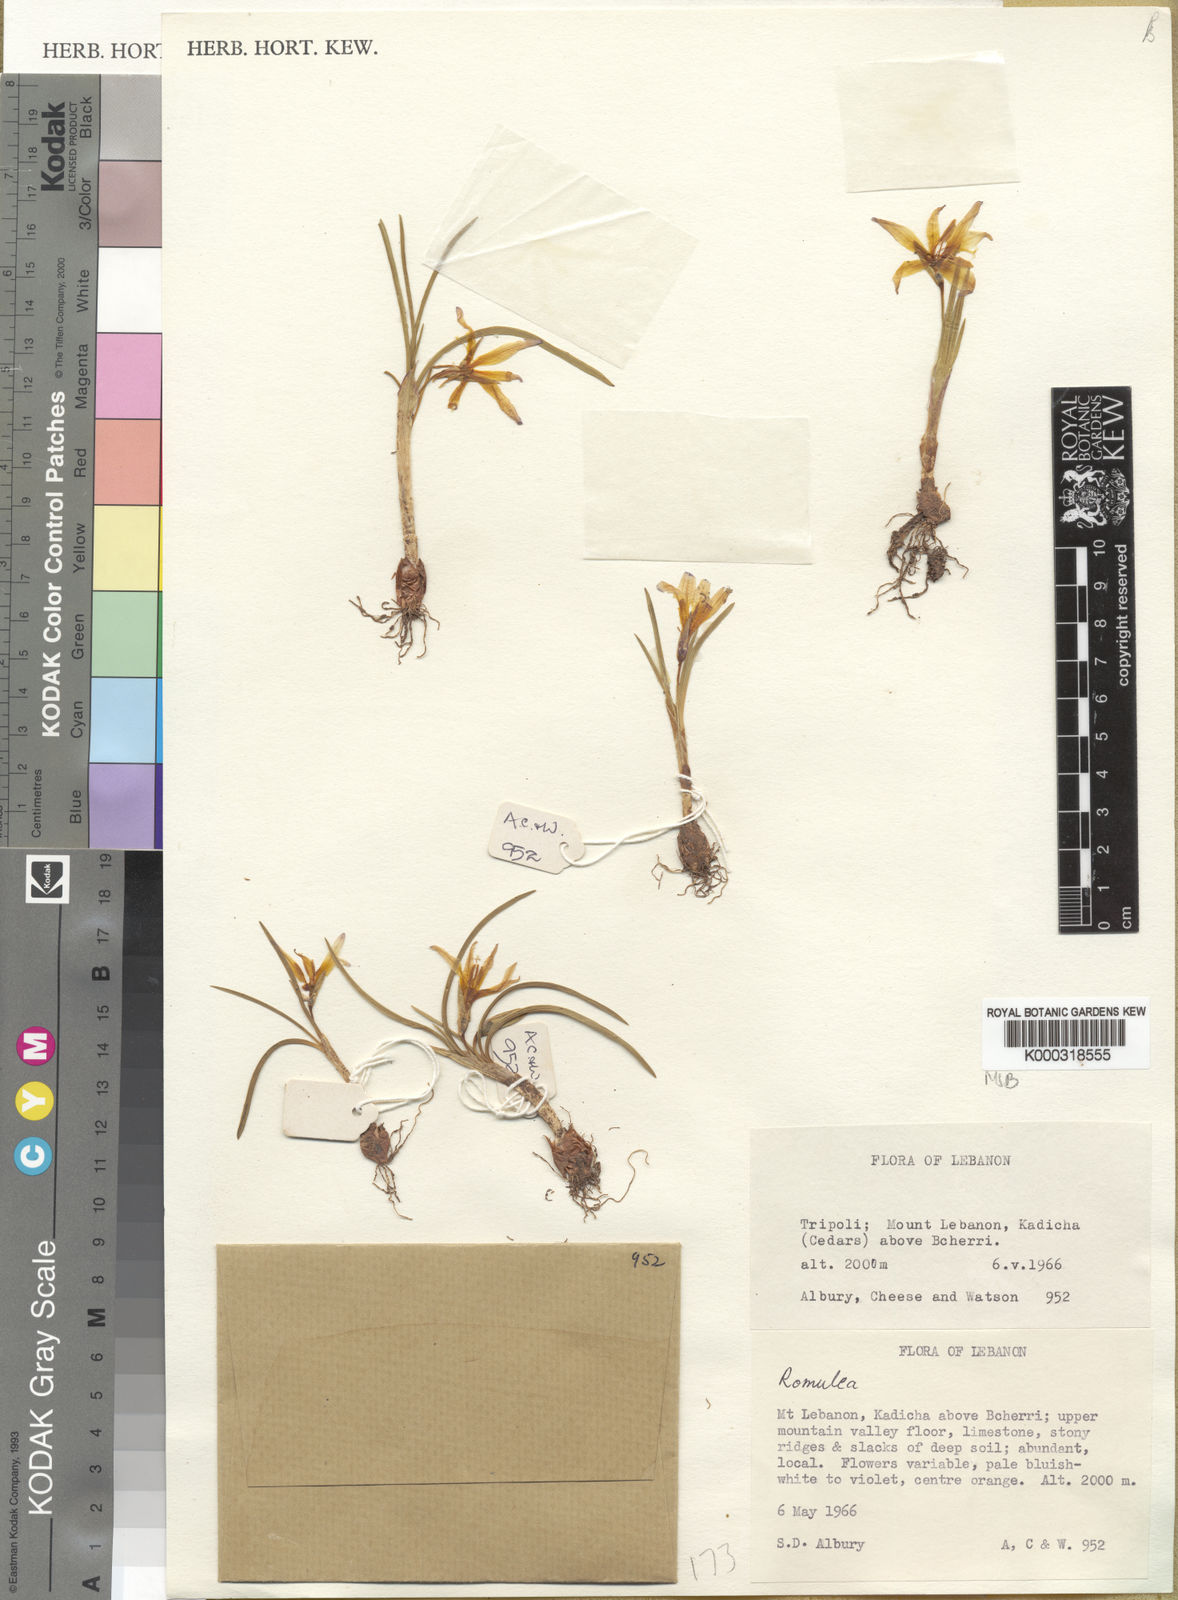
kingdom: Plantae
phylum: Tracheophyta
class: Liliopsida
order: Asparagales
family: Iridaceae
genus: Romulea
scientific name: Romulea nivalis
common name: Snow romulea
